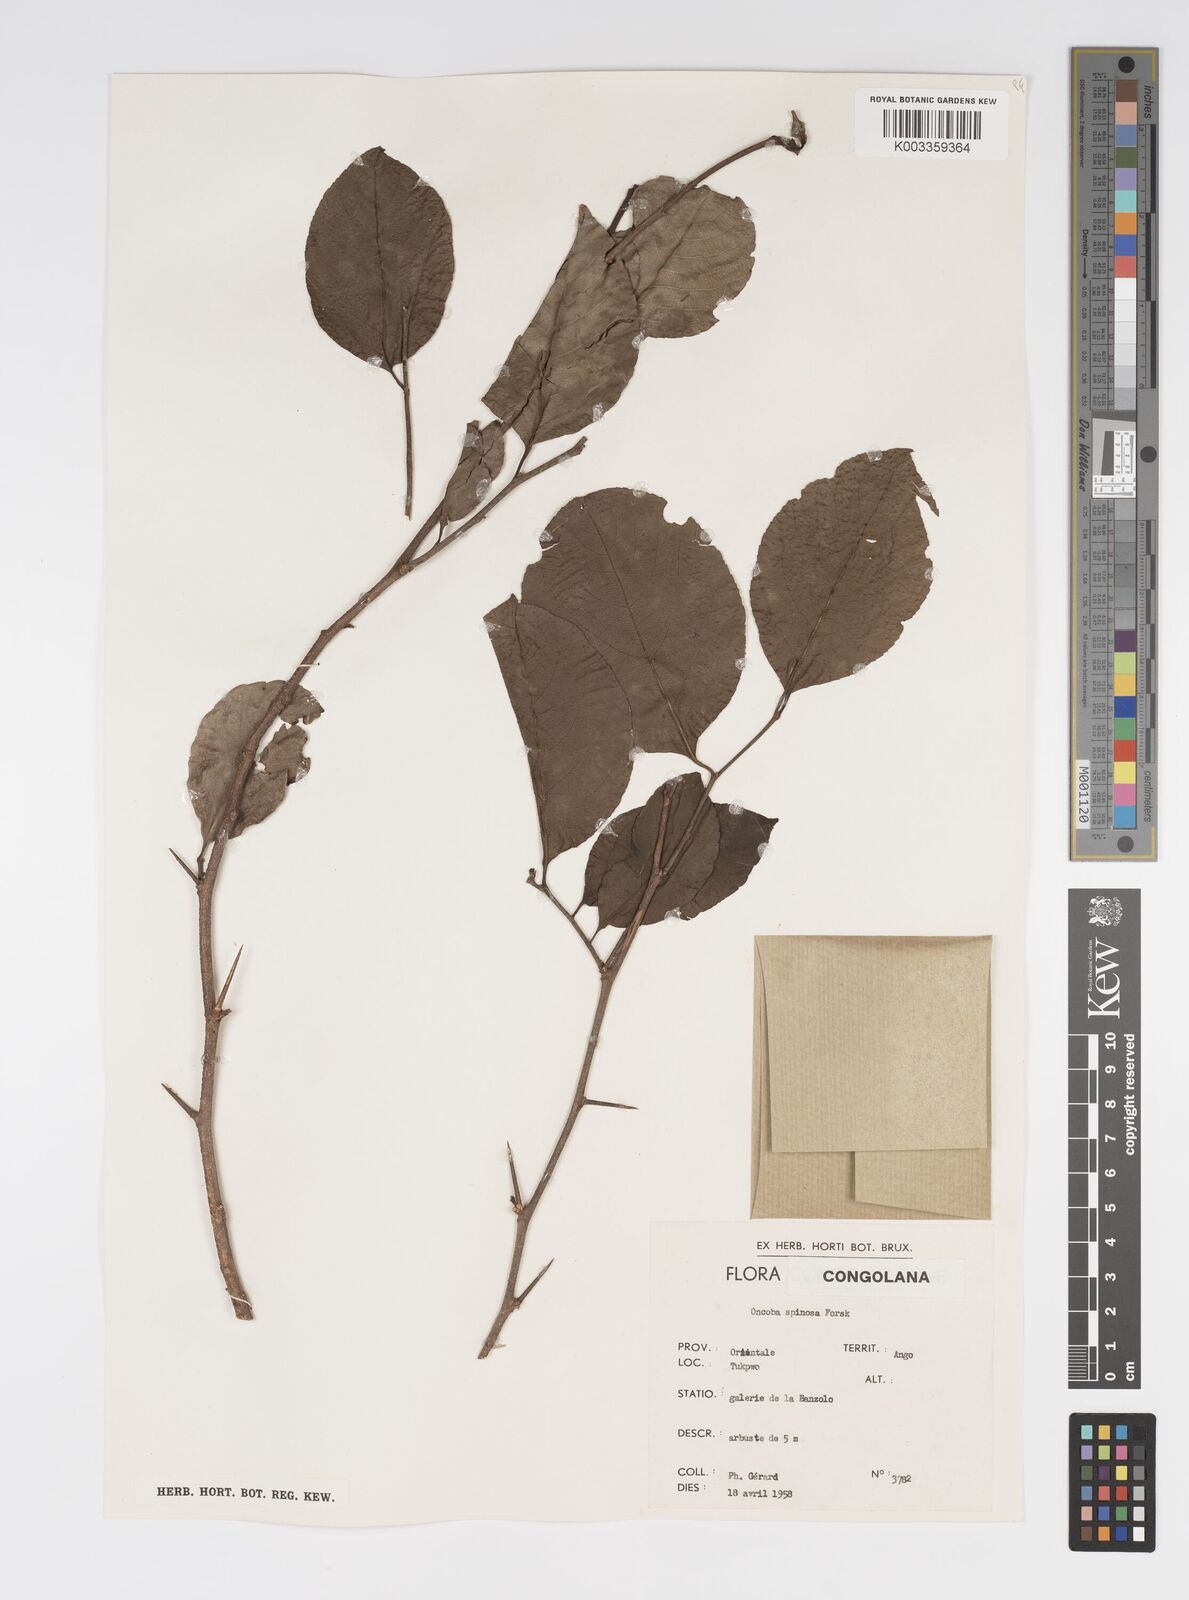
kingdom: Plantae
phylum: Tracheophyta
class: Magnoliopsida
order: Malpighiales
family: Salicaceae
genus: Oncoba
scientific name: Oncoba spinosa
